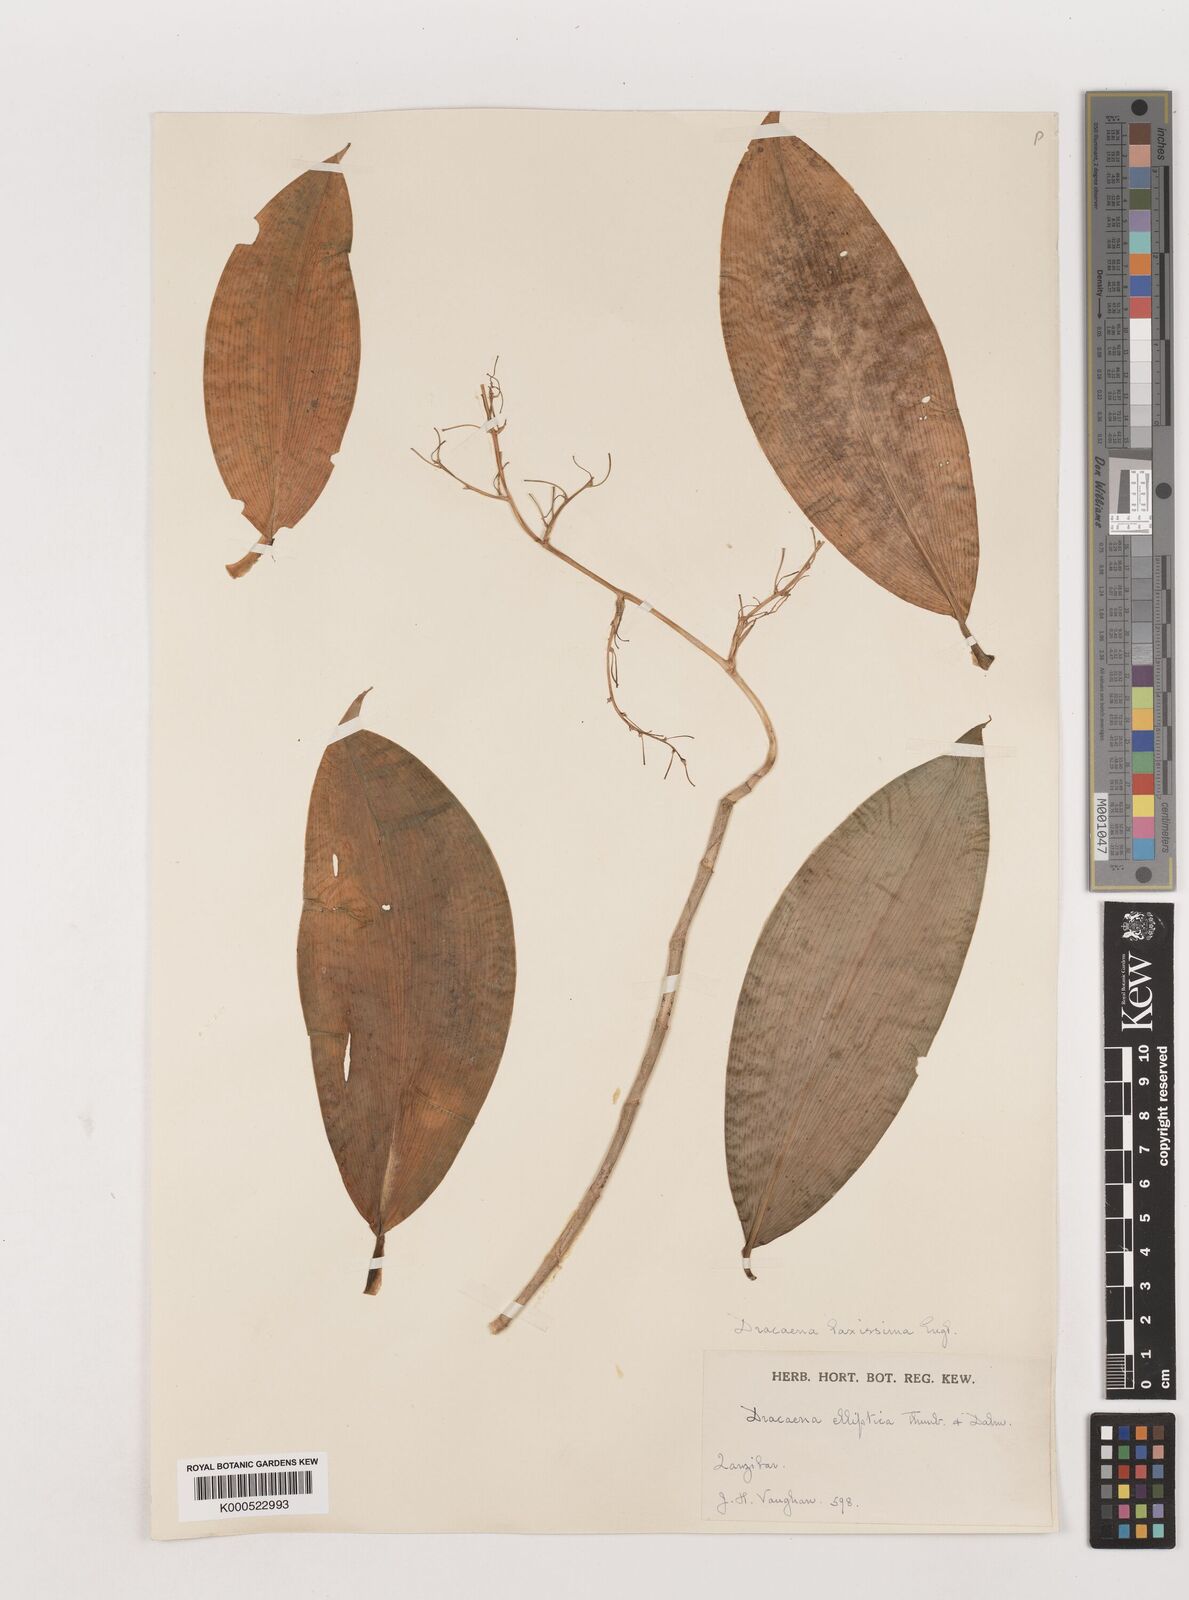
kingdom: Plantae
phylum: Tracheophyta
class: Liliopsida
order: Asparagales
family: Asparagaceae
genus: Dracaena
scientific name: Dracaena laxissima
